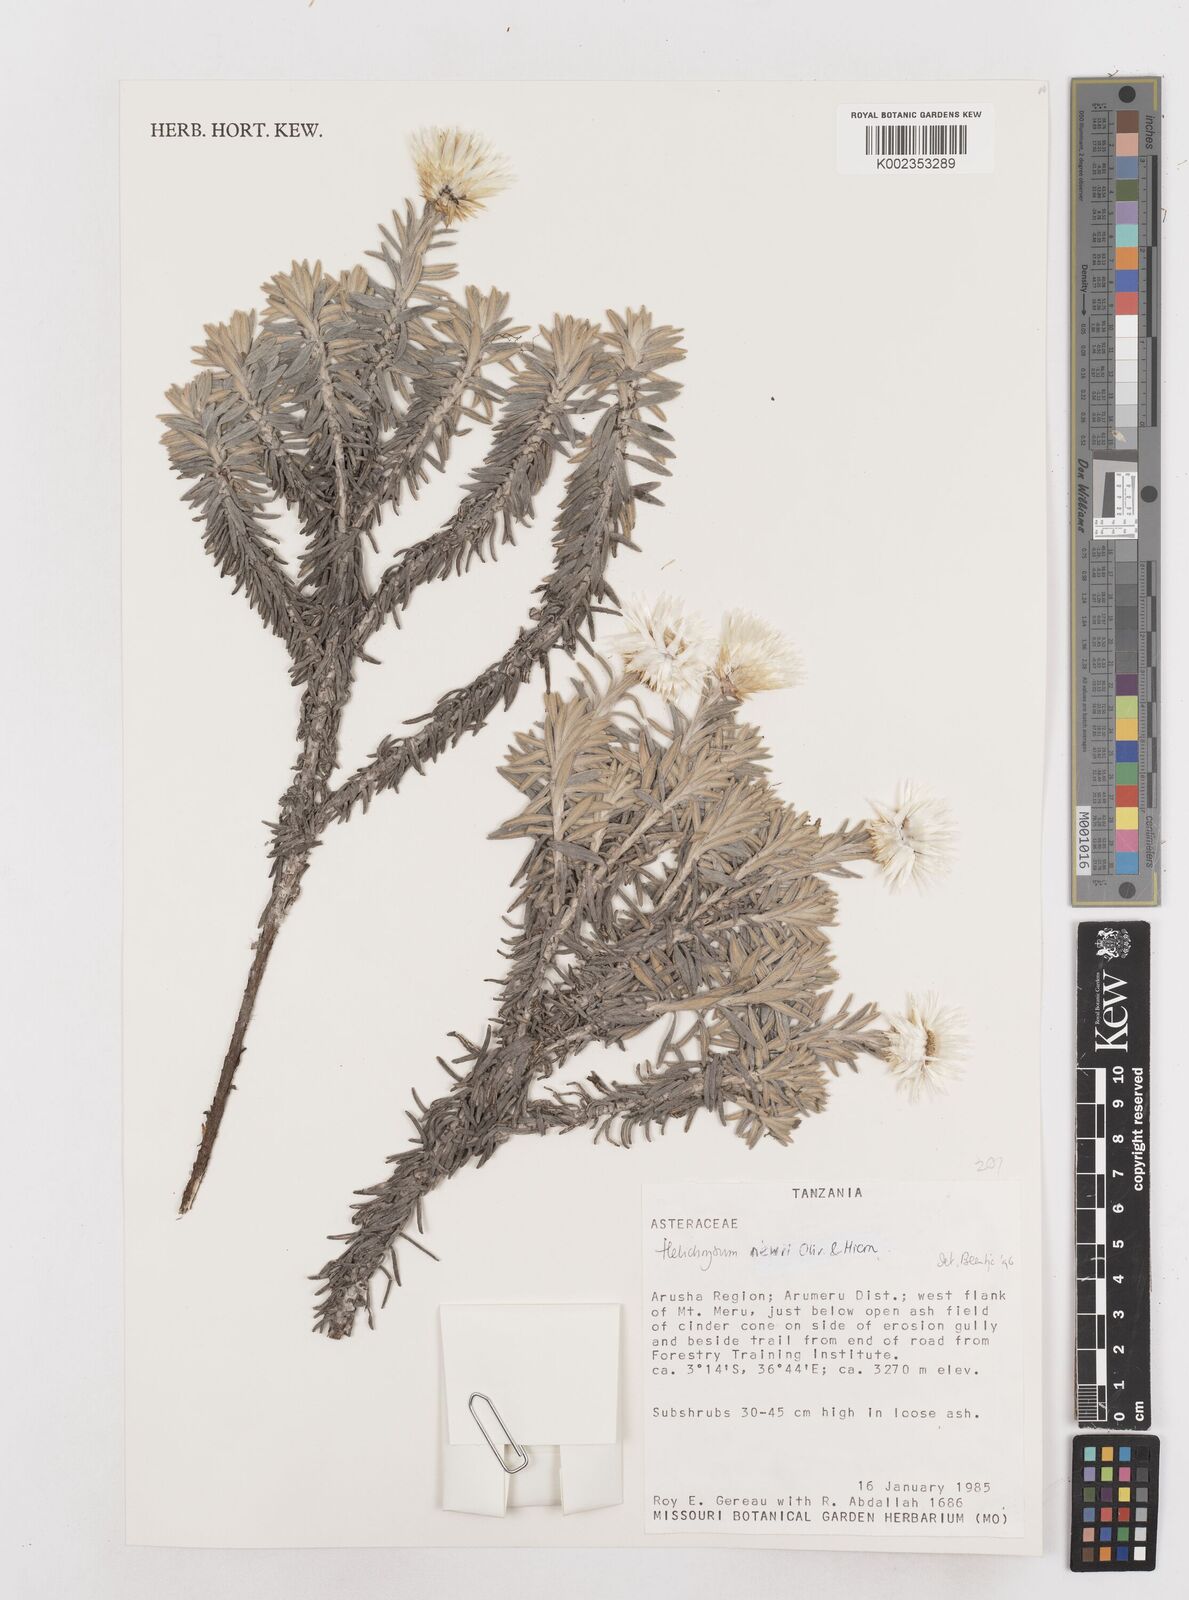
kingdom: Plantae
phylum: Tracheophyta
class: Magnoliopsida
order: Asterales
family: Asteraceae
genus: Helichrysum
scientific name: Helichrysum newii
